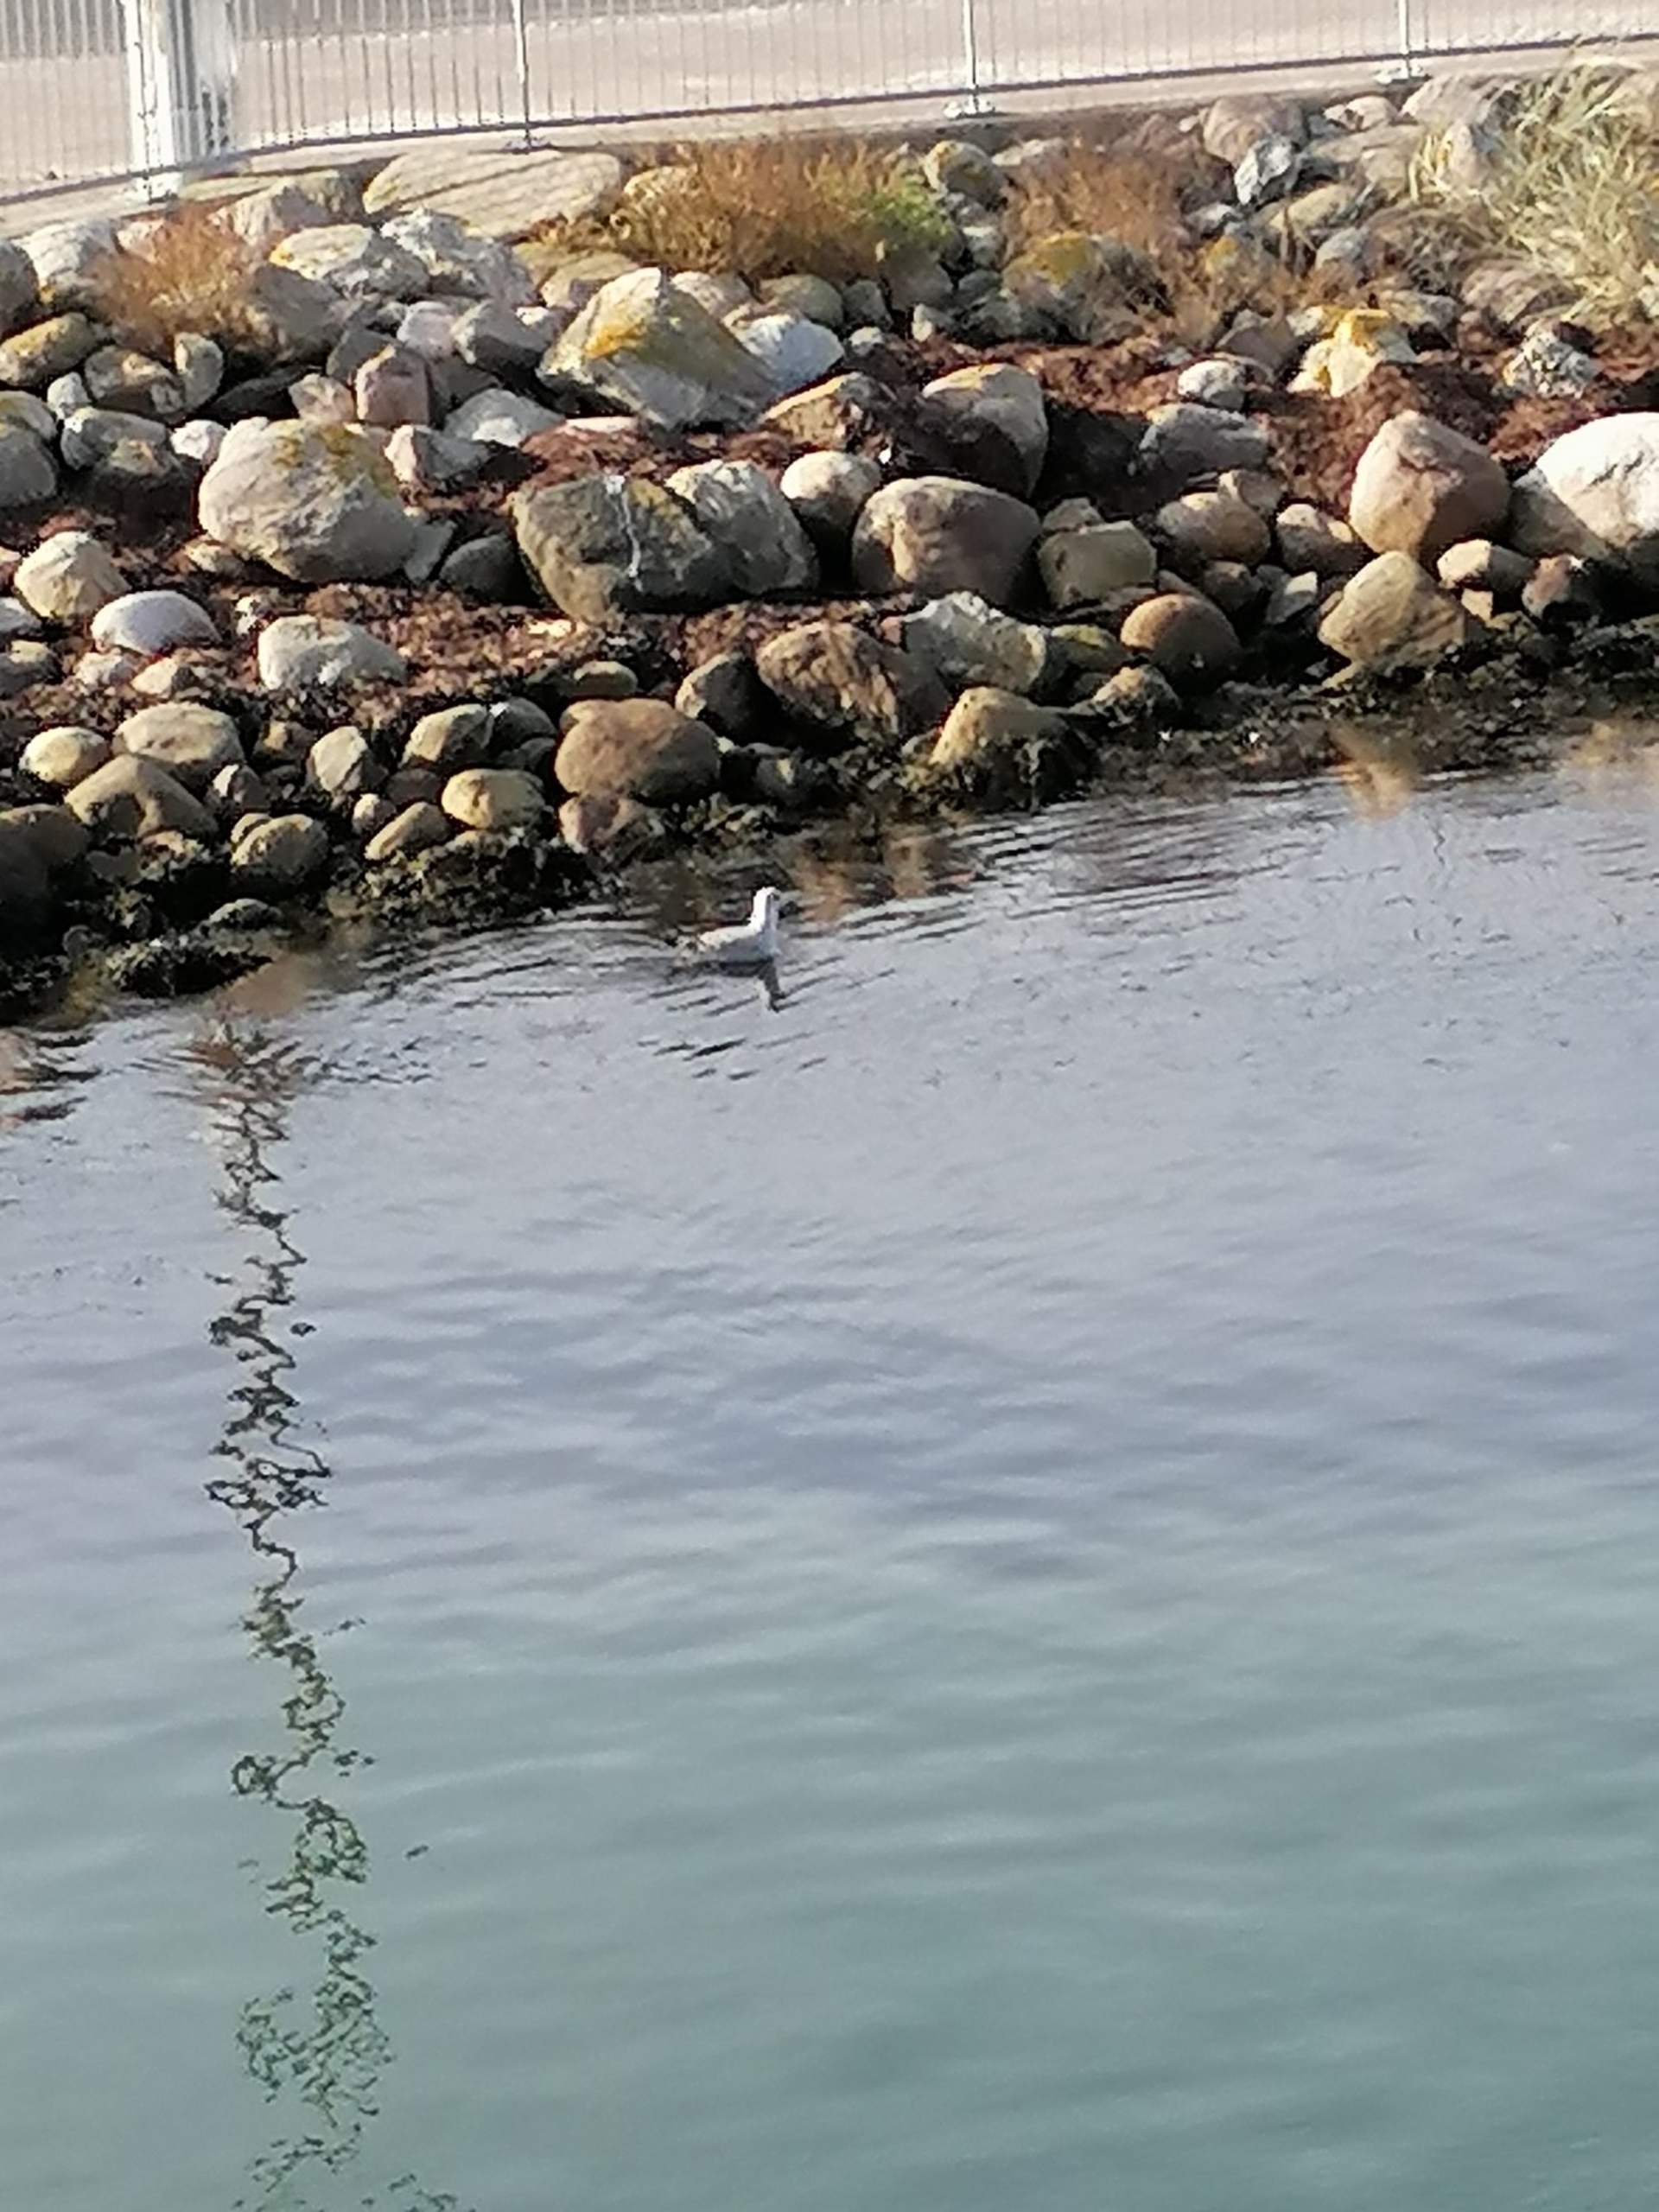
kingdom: Animalia
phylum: Chordata
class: Aves
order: Charadriiformes
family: Laridae
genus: Chroicocephalus
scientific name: Chroicocephalus ridibundus
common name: Hættemåge
